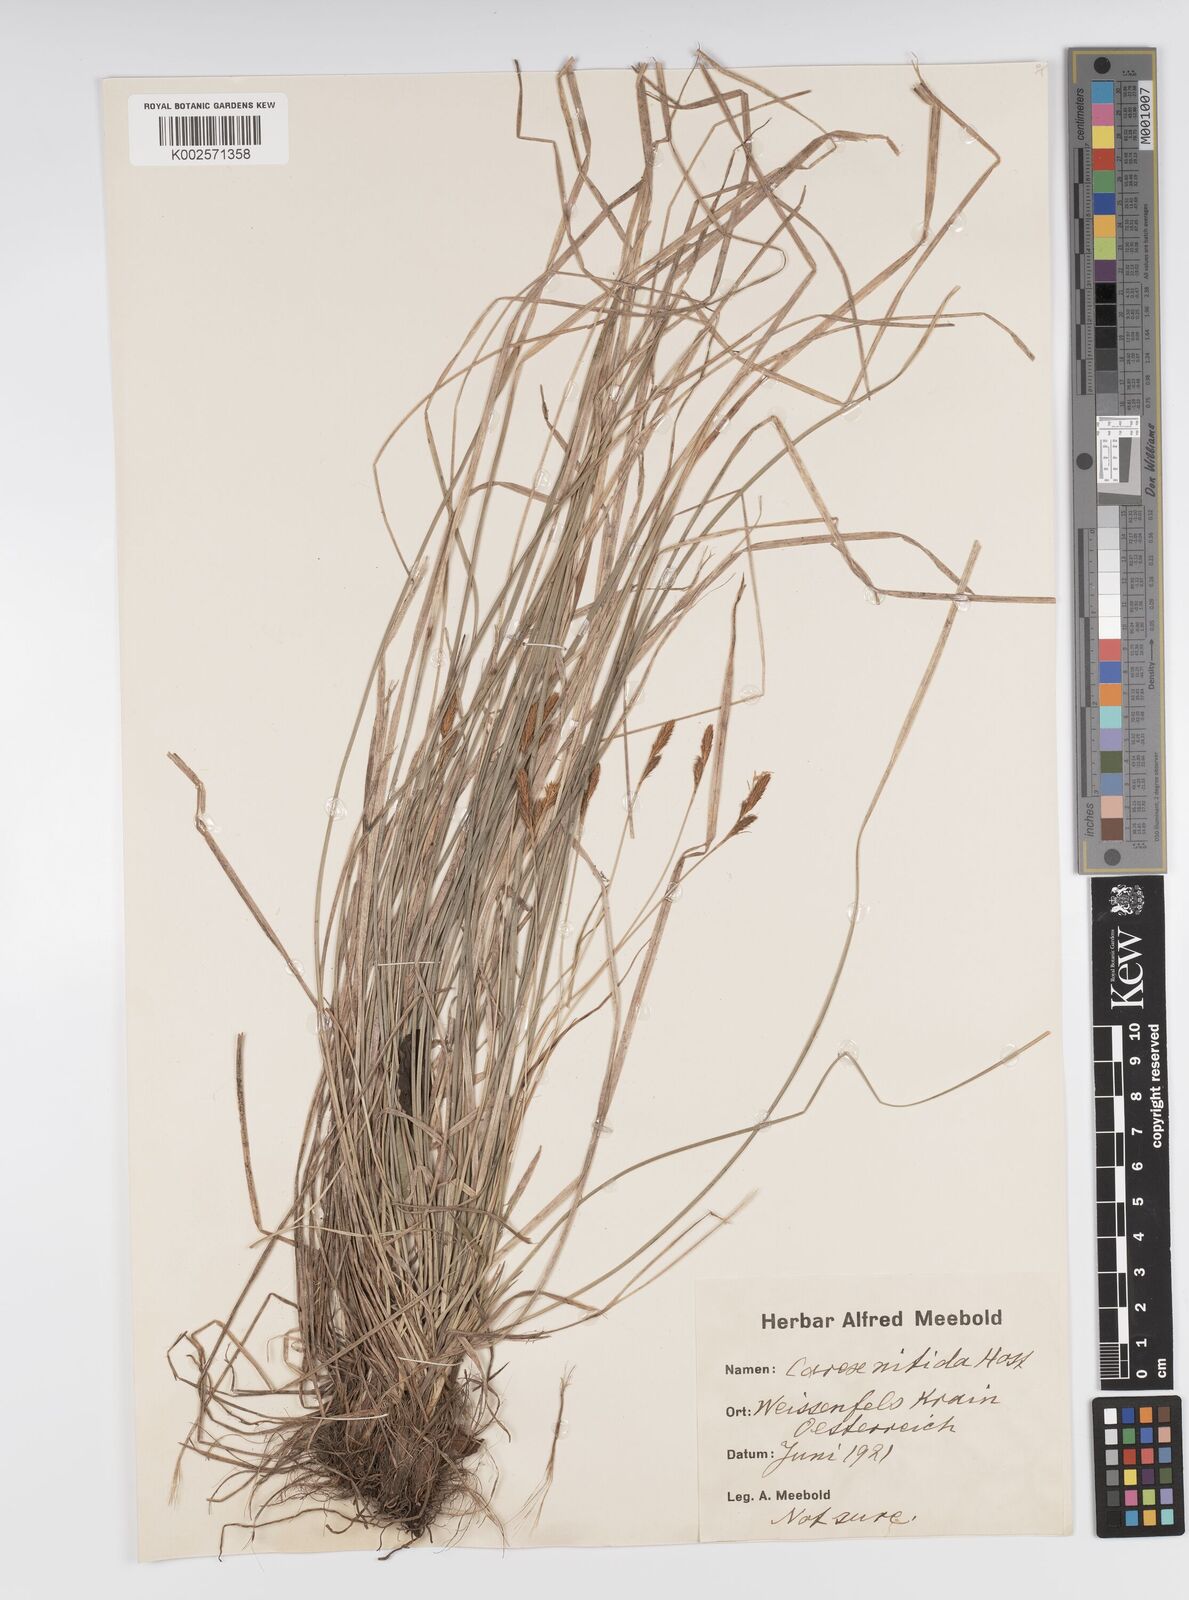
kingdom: Plantae
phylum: Tracheophyta
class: Liliopsida
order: Poales
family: Cyperaceae
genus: Carex
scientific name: Carex liparocarpos
